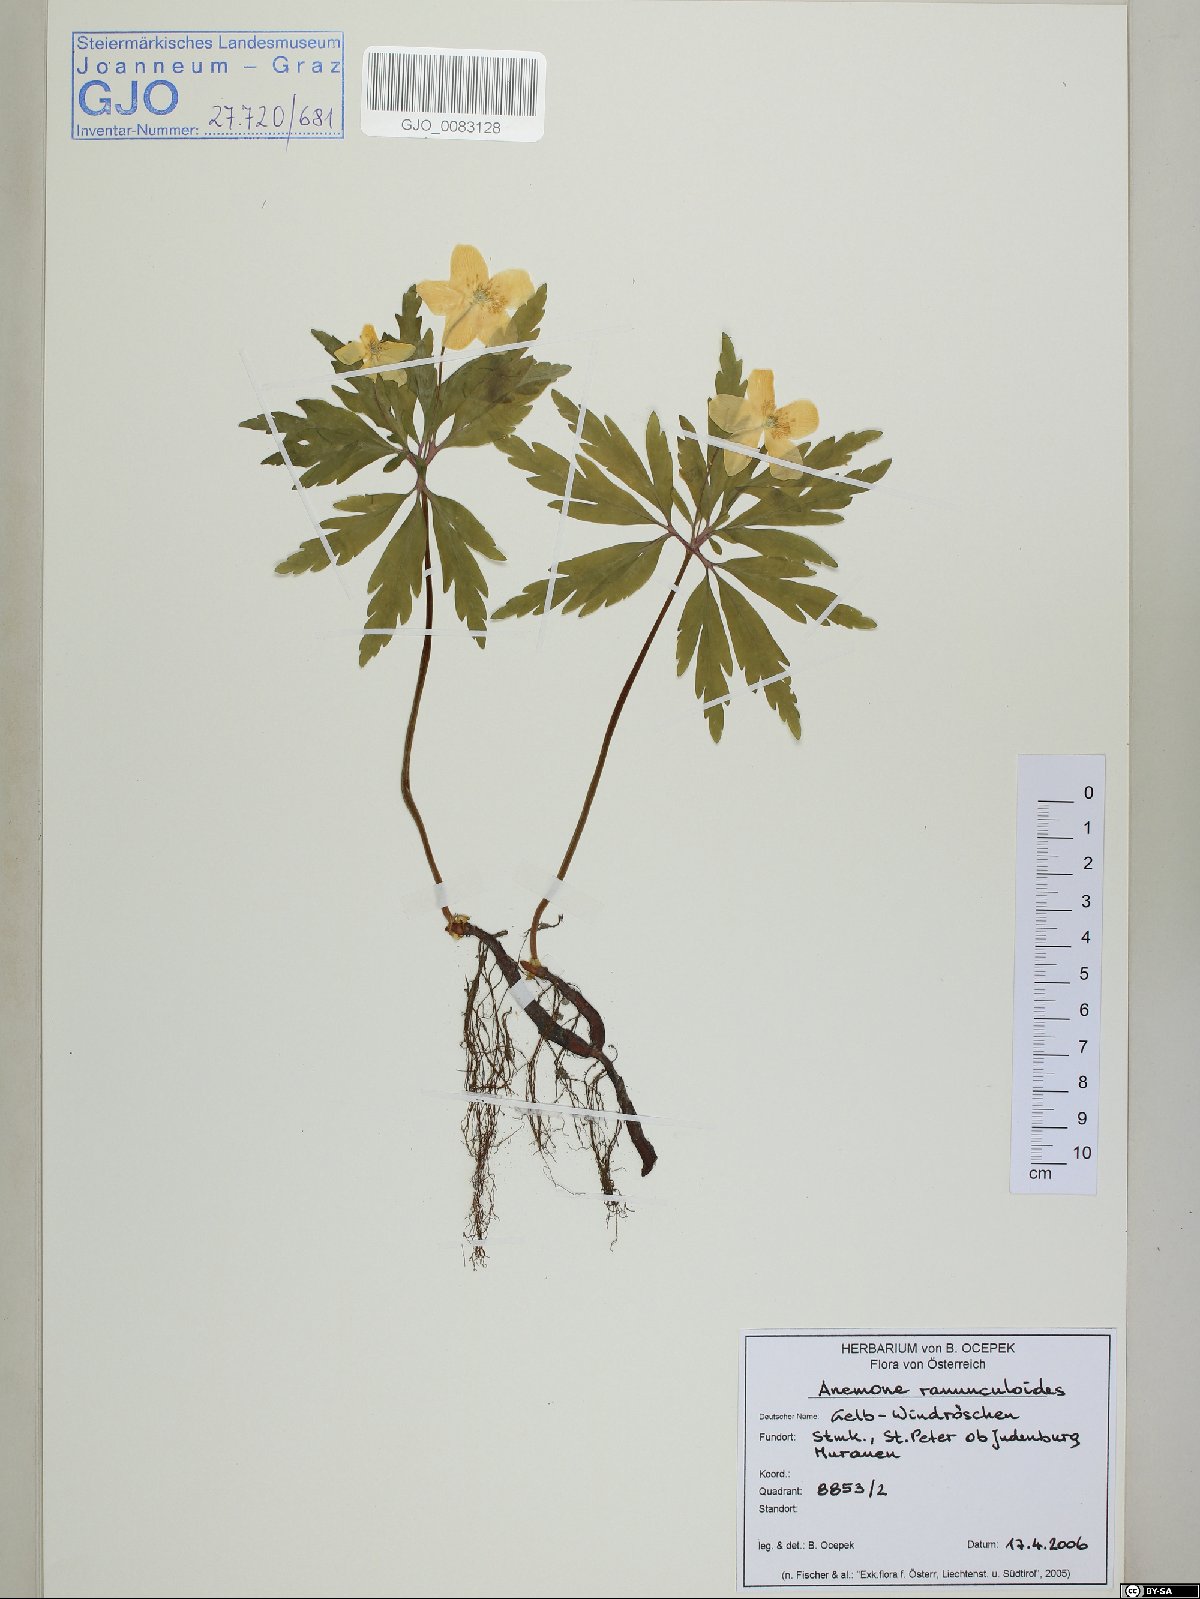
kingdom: Plantae
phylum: Tracheophyta
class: Magnoliopsida
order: Ranunculales
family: Ranunculaceae
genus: Anemone
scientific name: Anemone ranunculoides
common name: Yellow anemone
